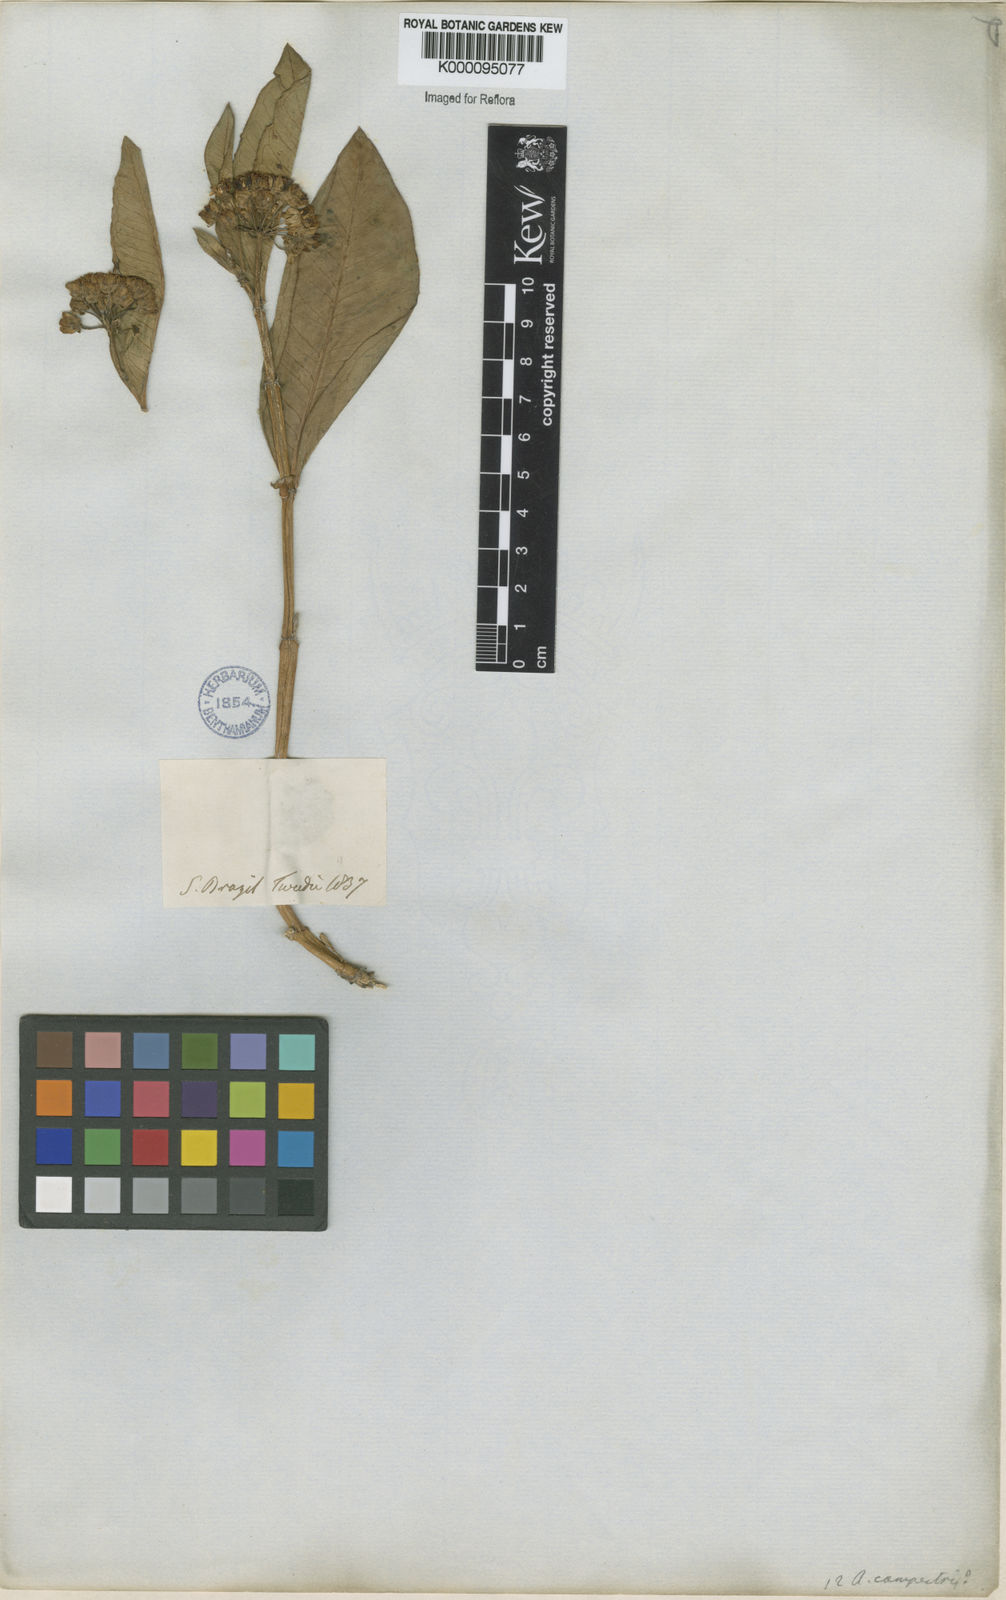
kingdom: Plantae
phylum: Tracheophyta
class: Magnoliopsida
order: Gentianales
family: Apocynaceae
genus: Asclepias
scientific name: Asclepias mellodora
